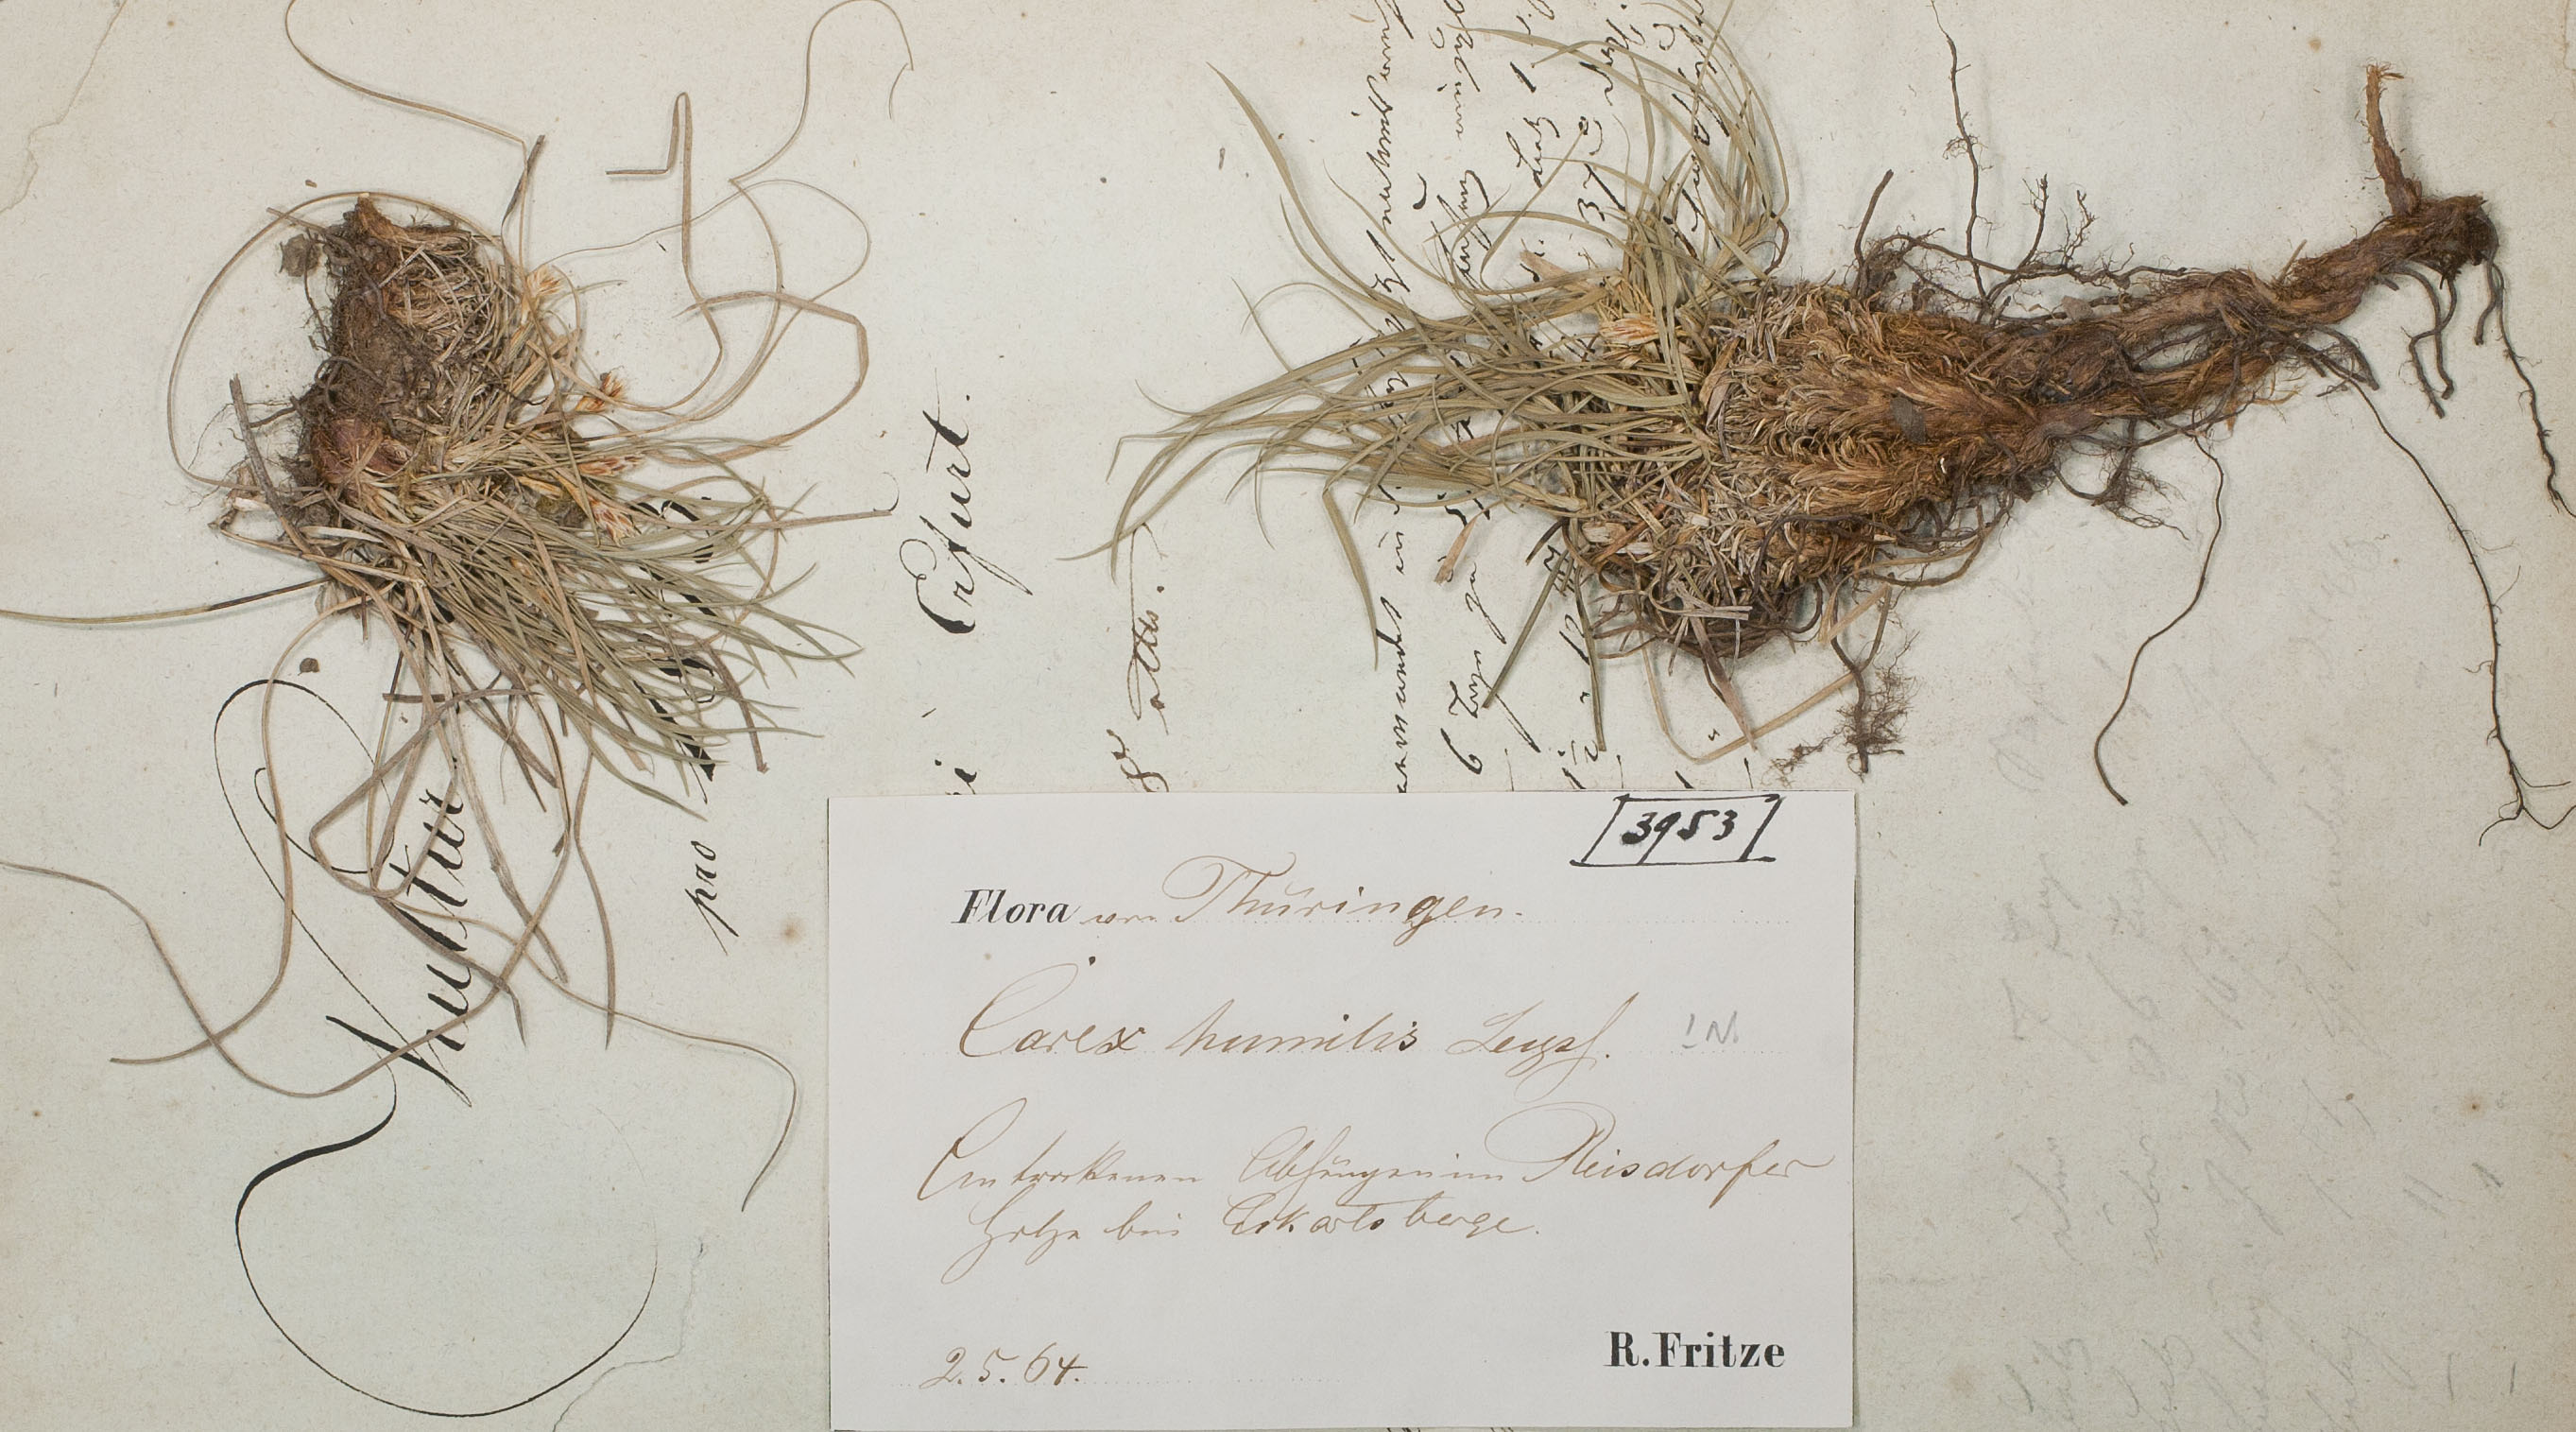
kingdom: Plantae
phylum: Tracheophyta
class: Liliopsida
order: Poales
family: Cyperaceae
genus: Carex
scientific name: Carex humilis
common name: Dwarf sedge
